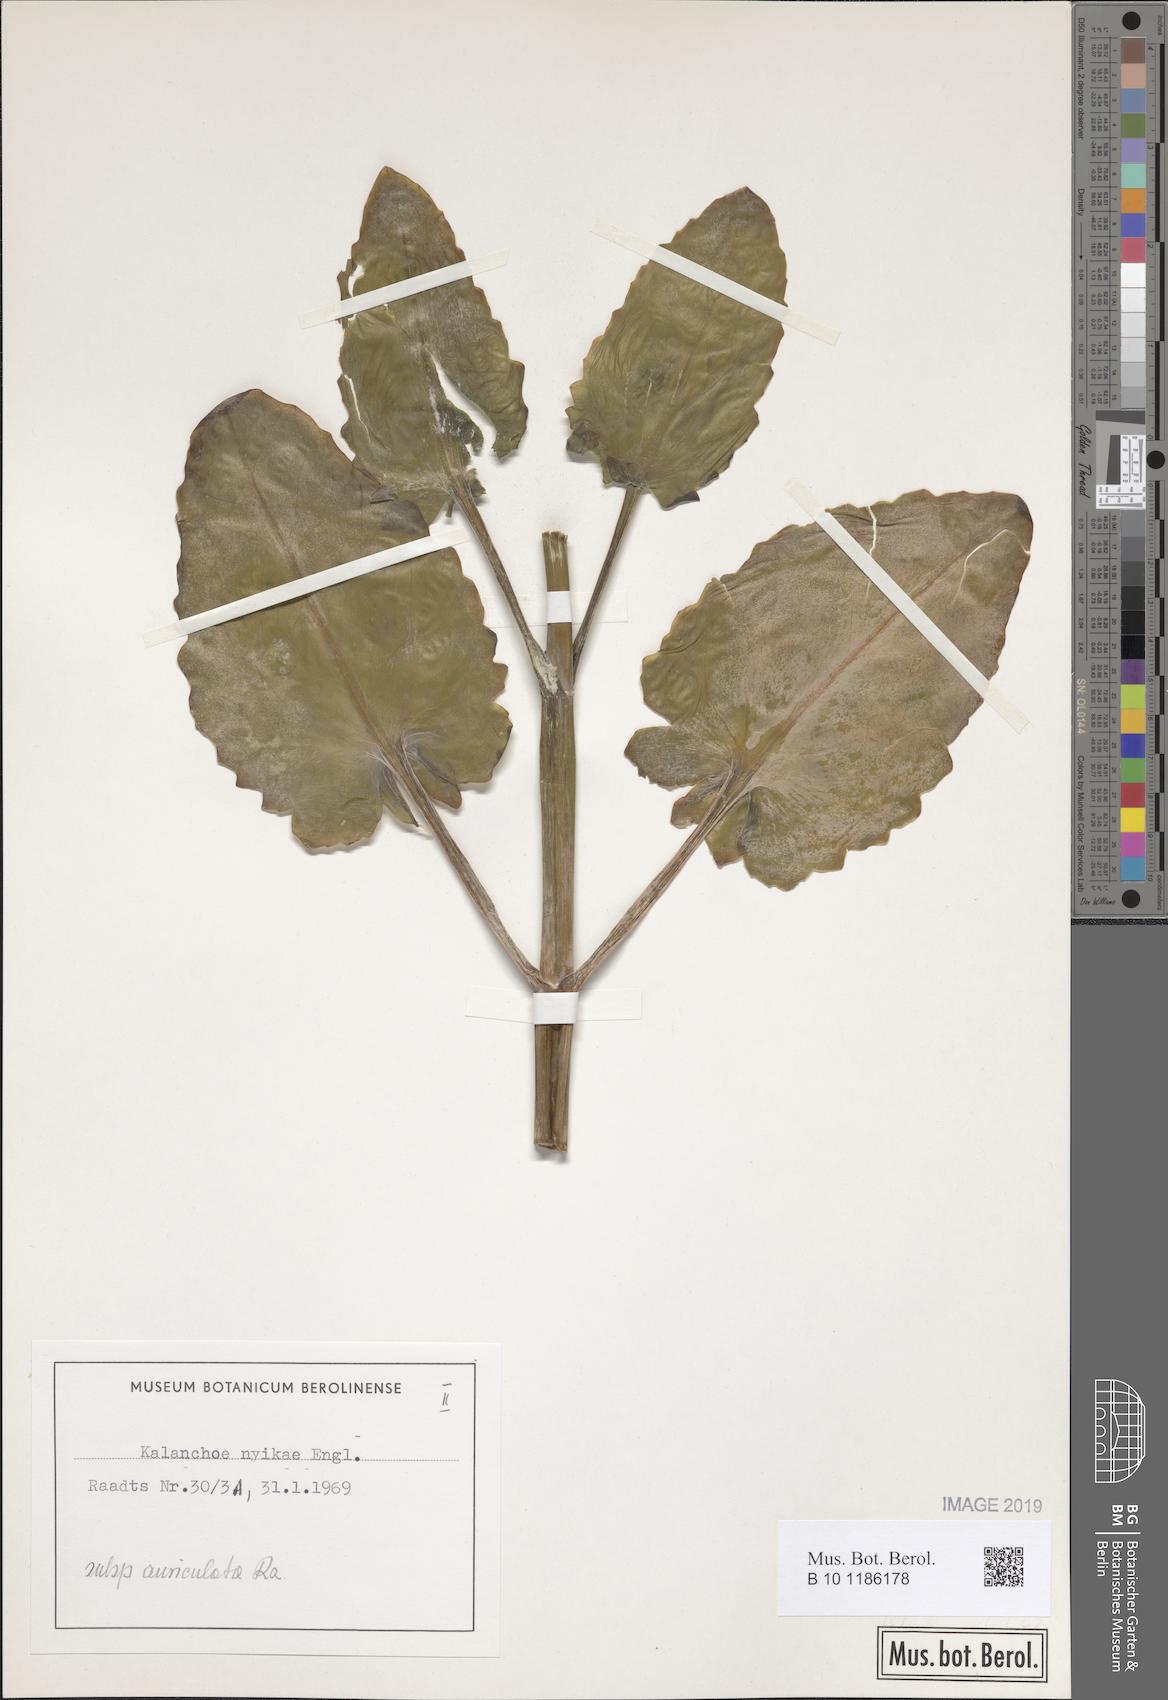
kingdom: Plantae
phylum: Tracheophyta
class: Magnoliopsida
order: Saxifragales
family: Crassulaceae
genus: Kalanchoe
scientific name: Kalanchoe auriculata
